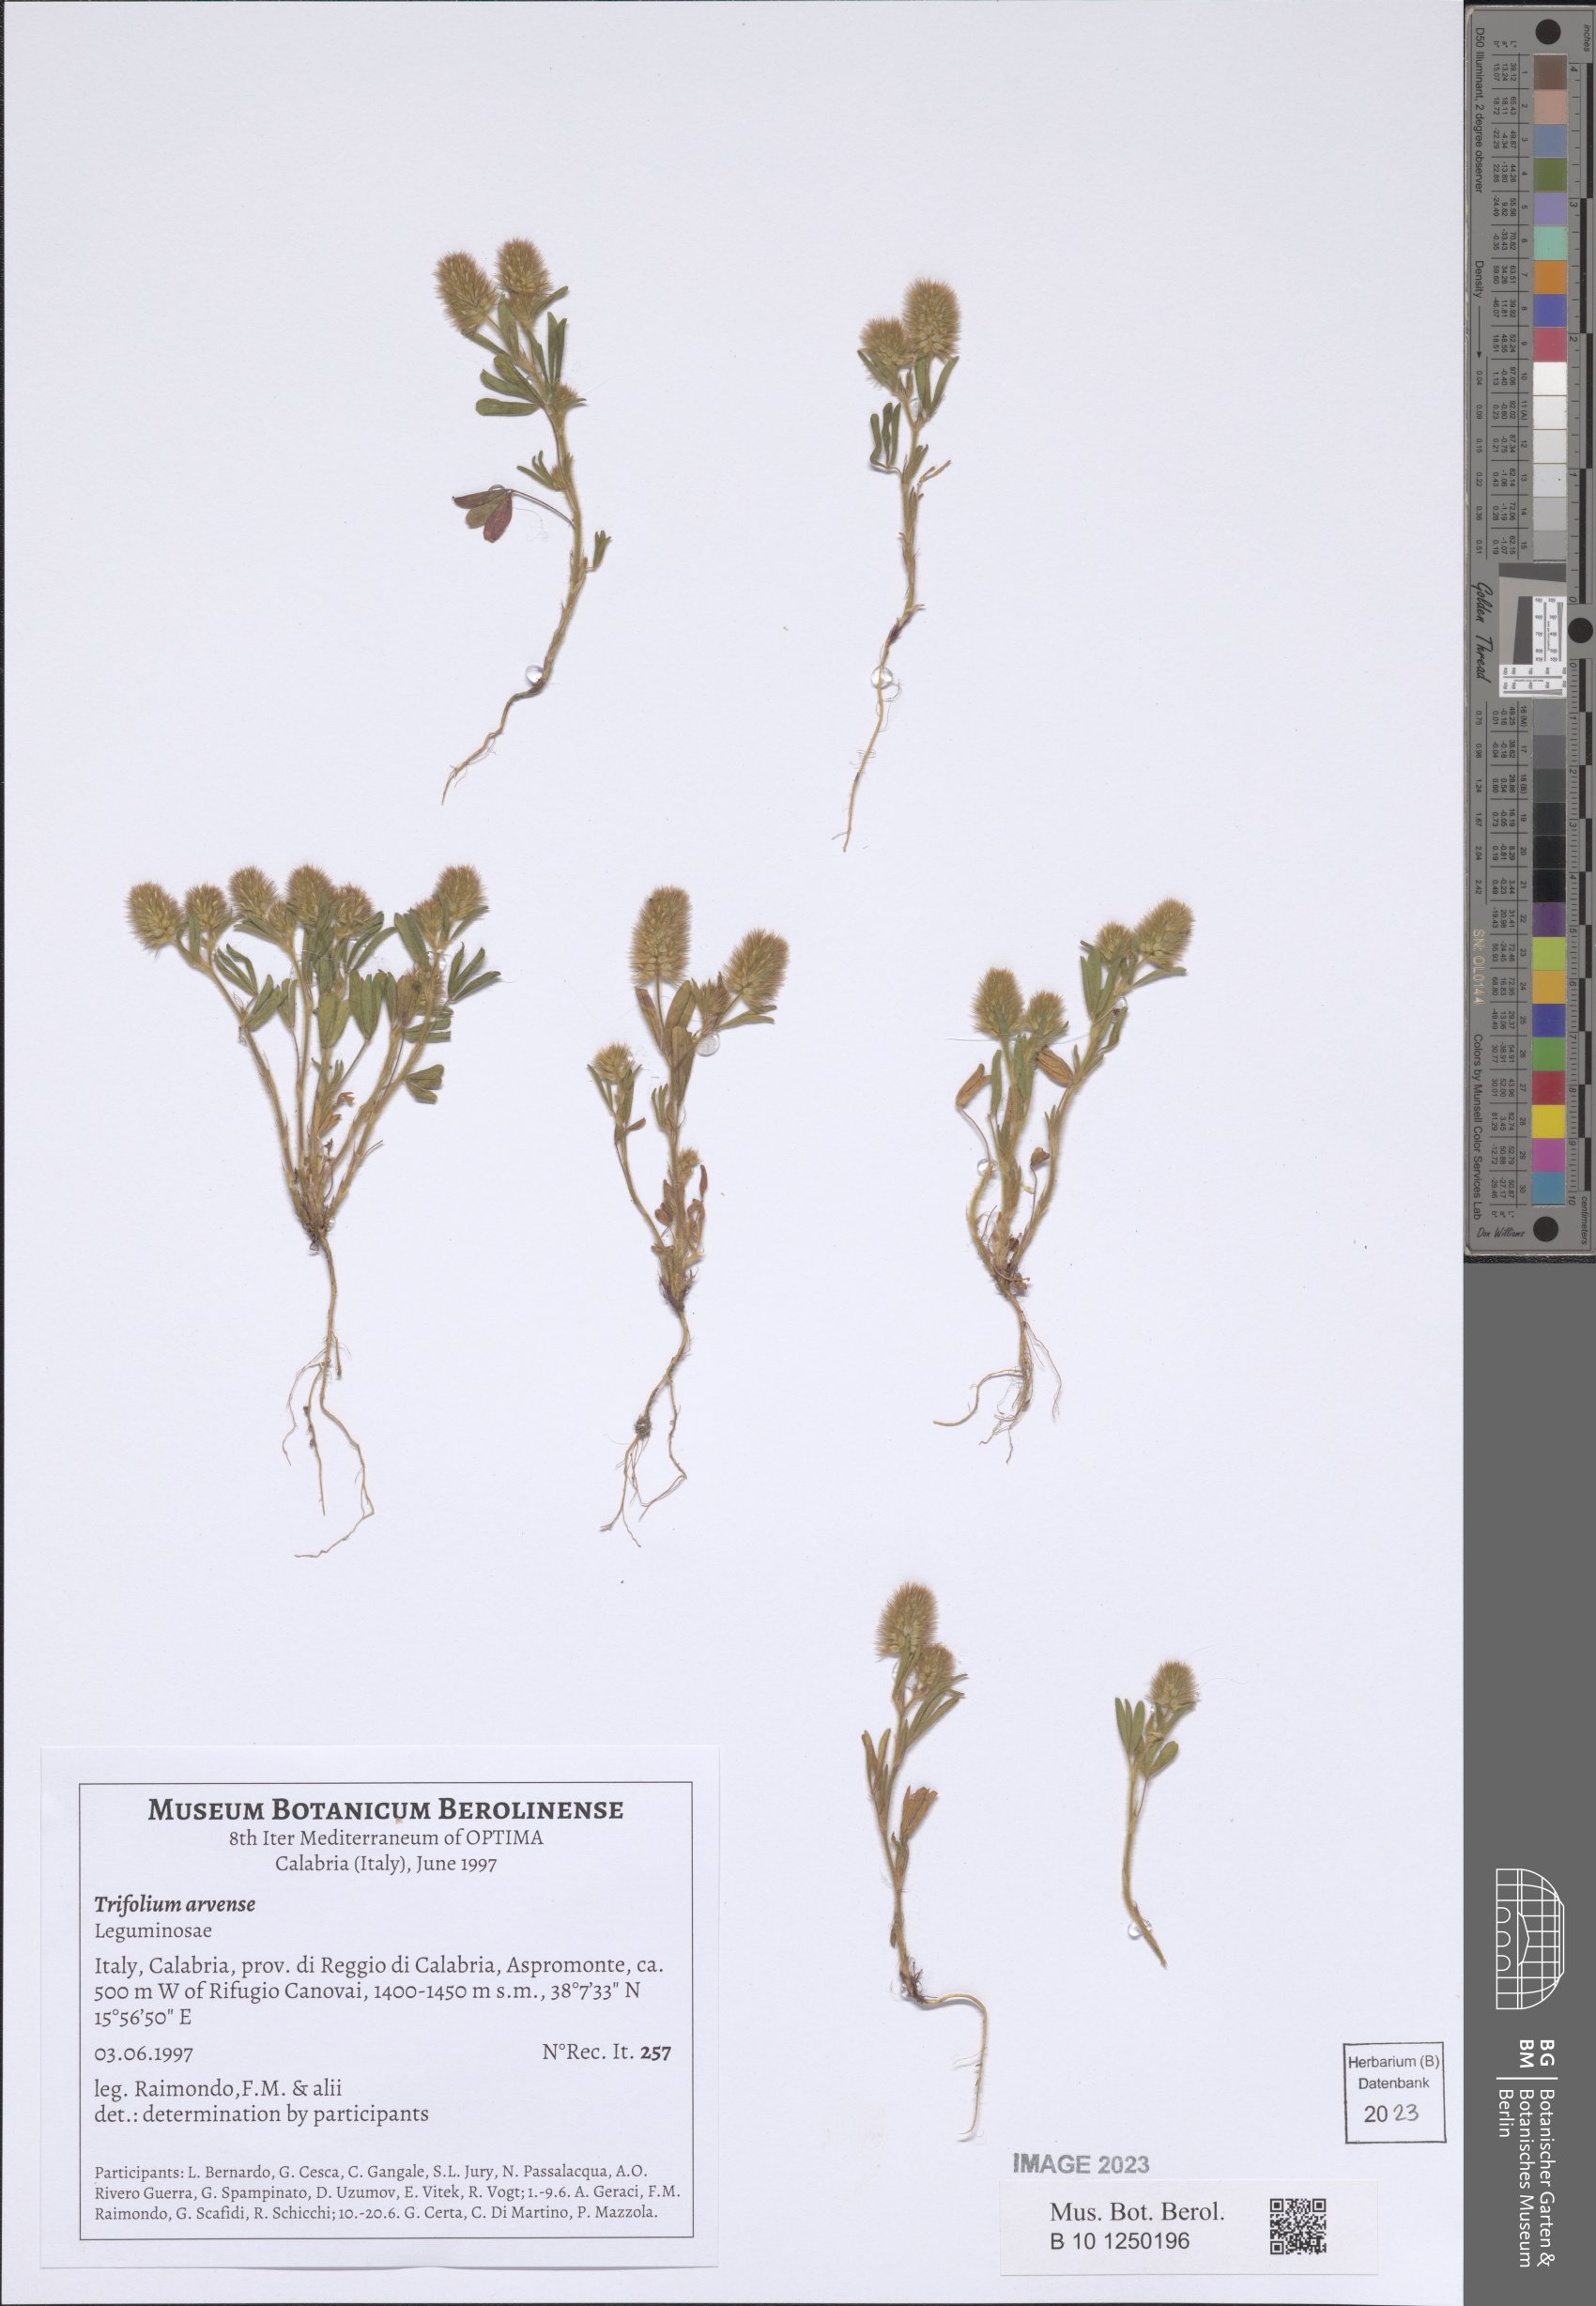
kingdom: Plantae
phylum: Tracheophyta
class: Magnoliopsida
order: Fabales
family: Fabaceae
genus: Trifolium
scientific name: Trifolium arvense
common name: Hare's-foot clover
